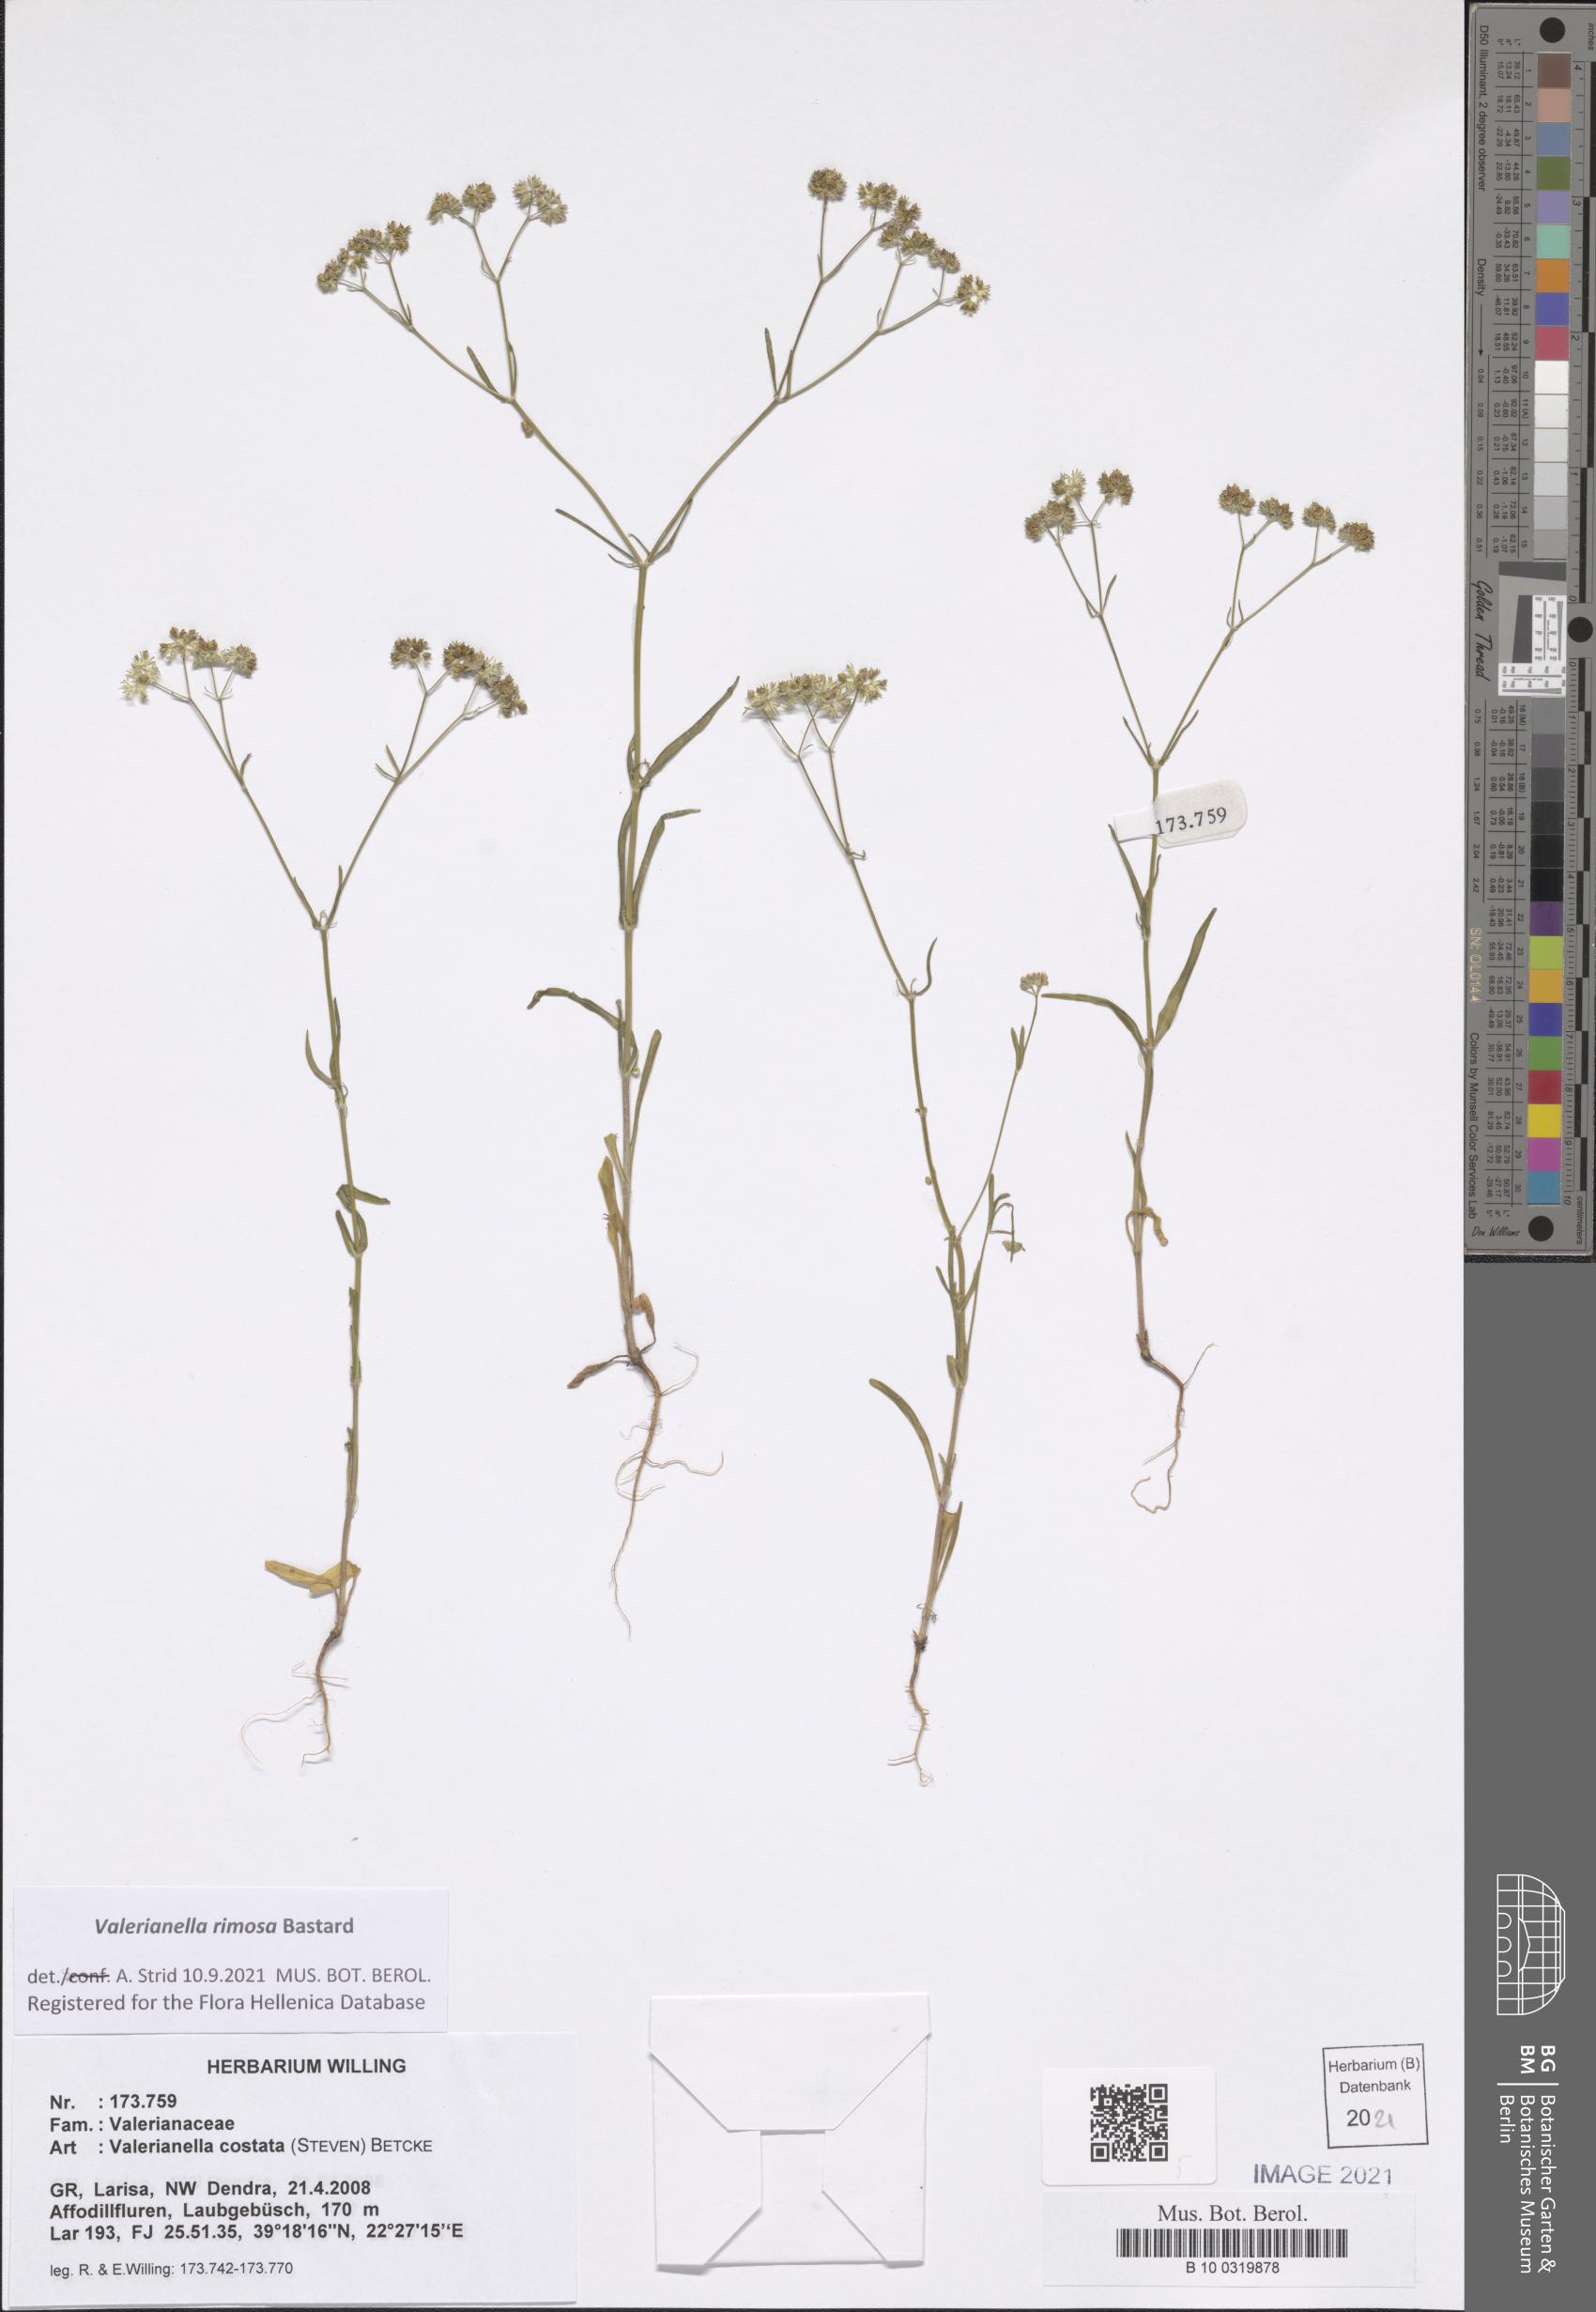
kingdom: Plantae
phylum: Tracheophyta
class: Magnoliopsida
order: Dipsacales
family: Caprifoliaceae
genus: Valerianella
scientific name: Valerianella rimosa
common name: Broad-fruited cornsalad
